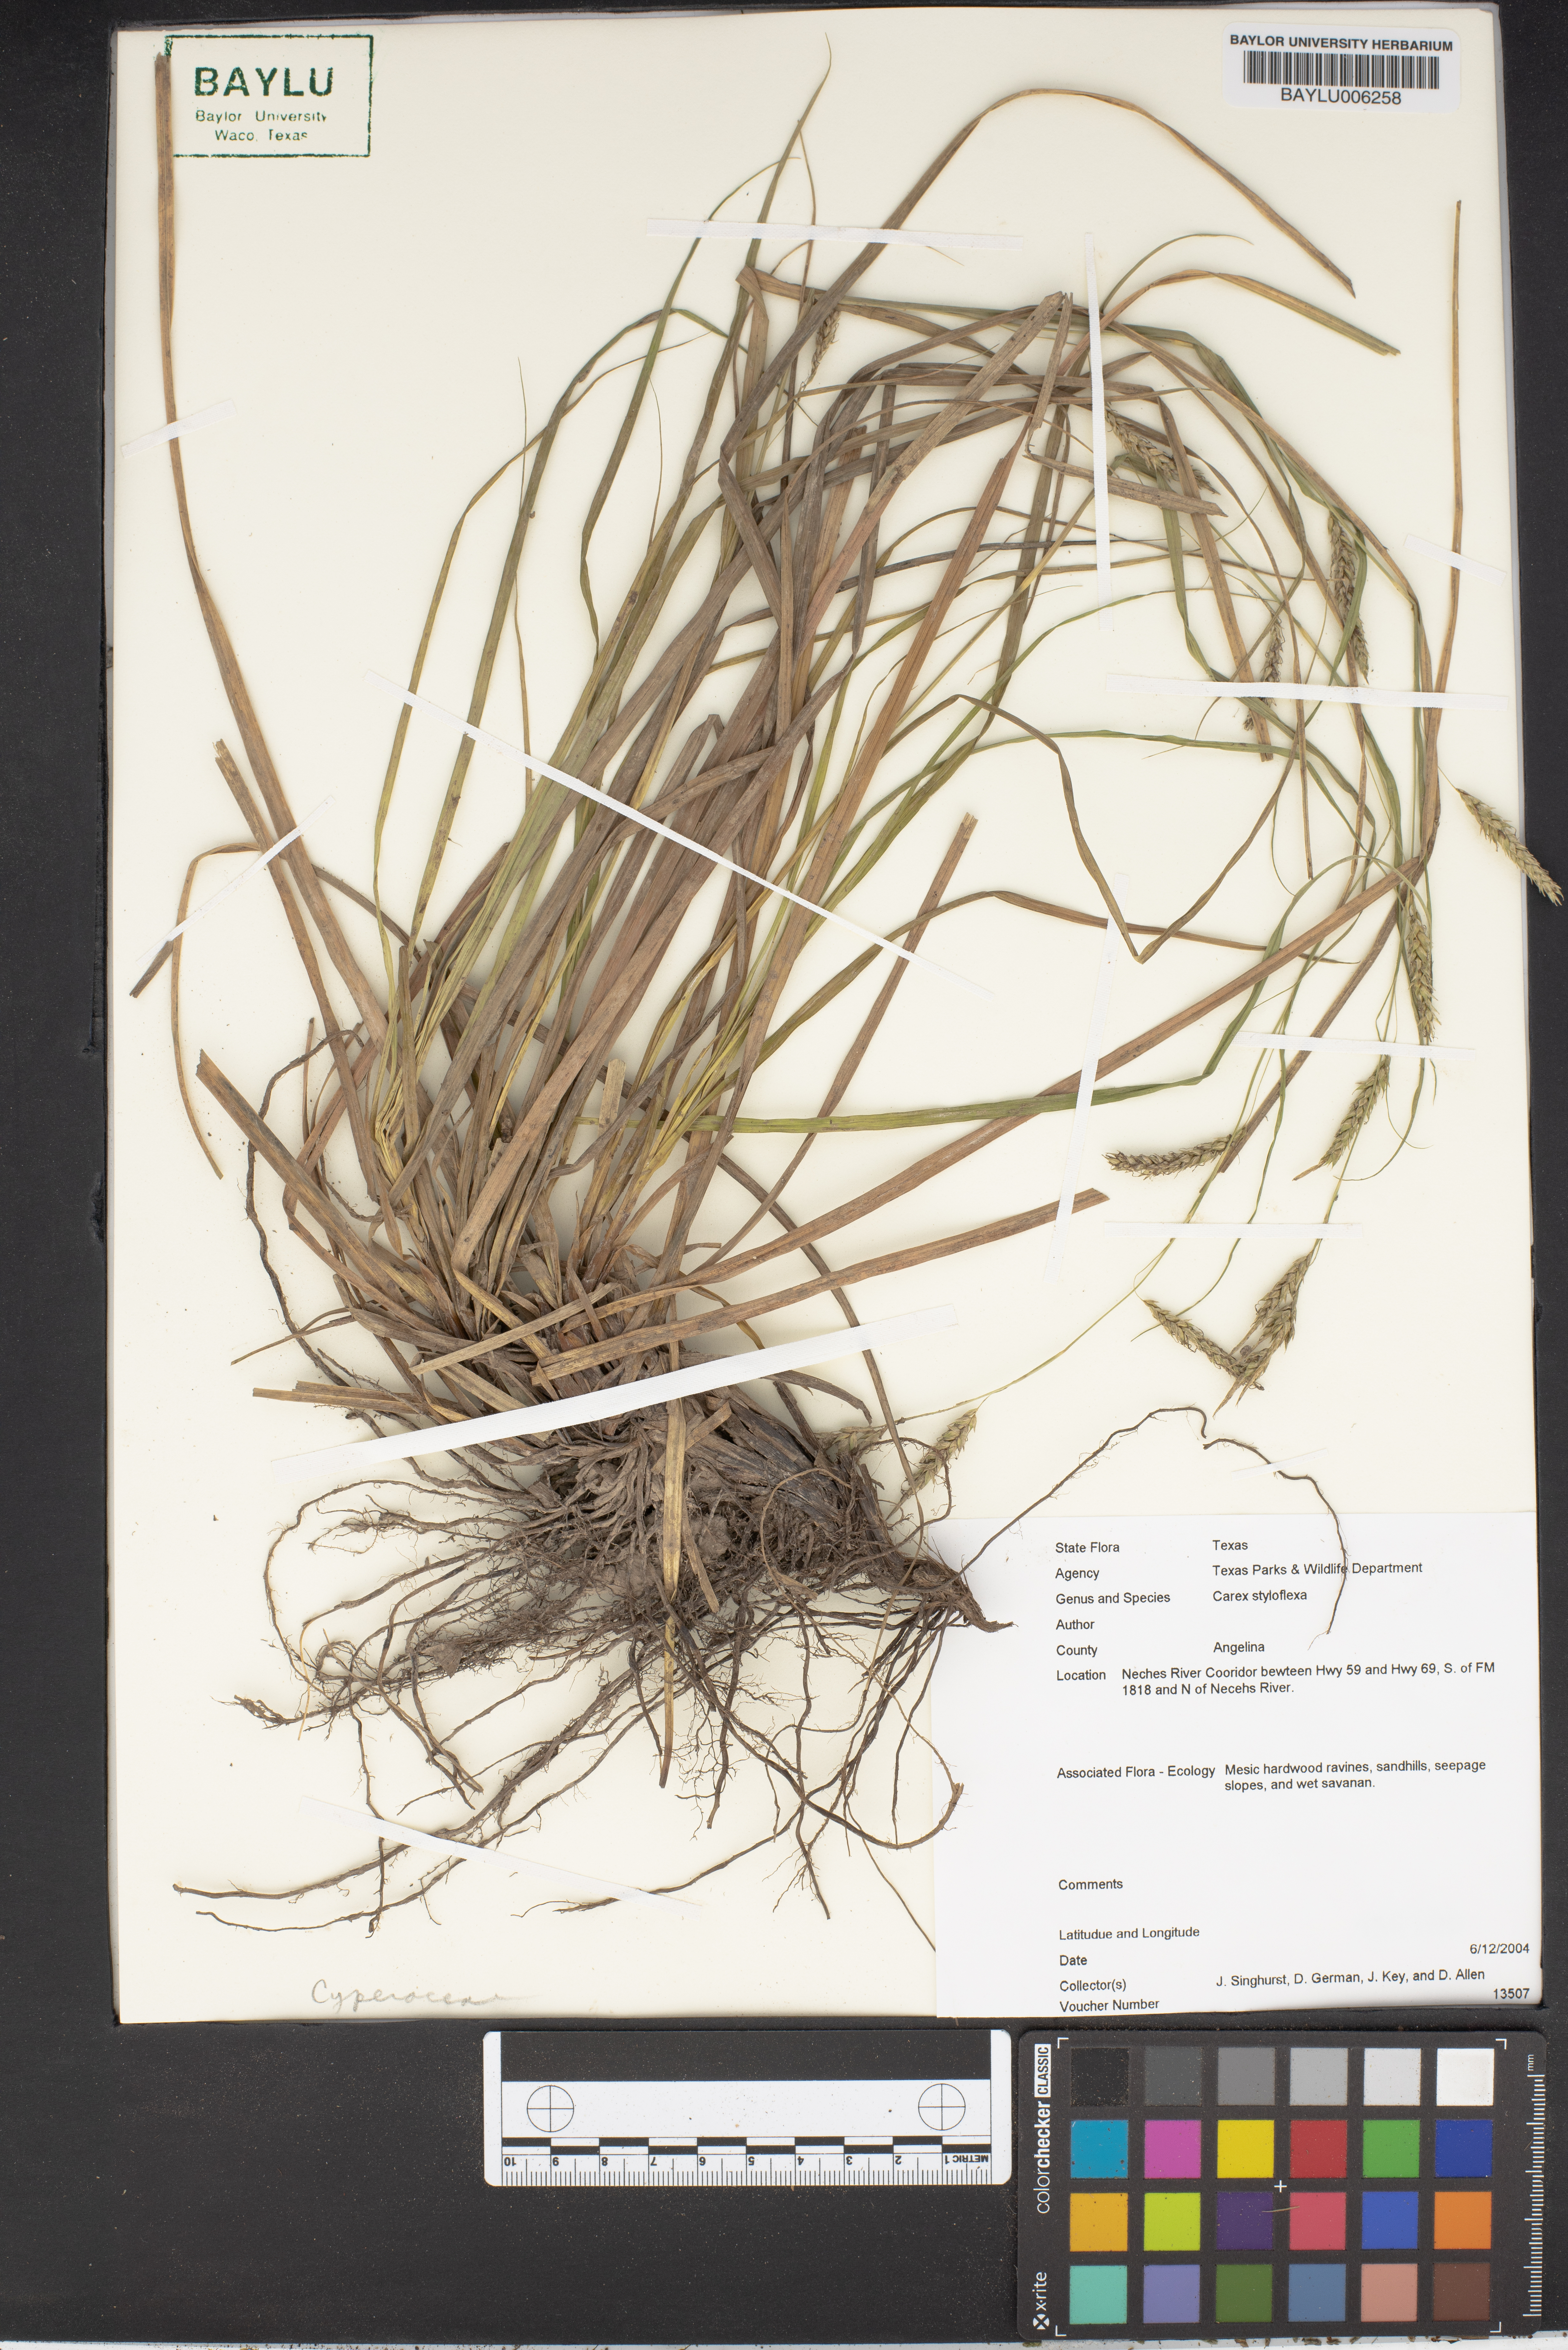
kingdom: Plantae
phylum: Tracheophyta
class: Liliopsida
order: Poales
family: Cyperaceae
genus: Carex
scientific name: Carex styloflexa
